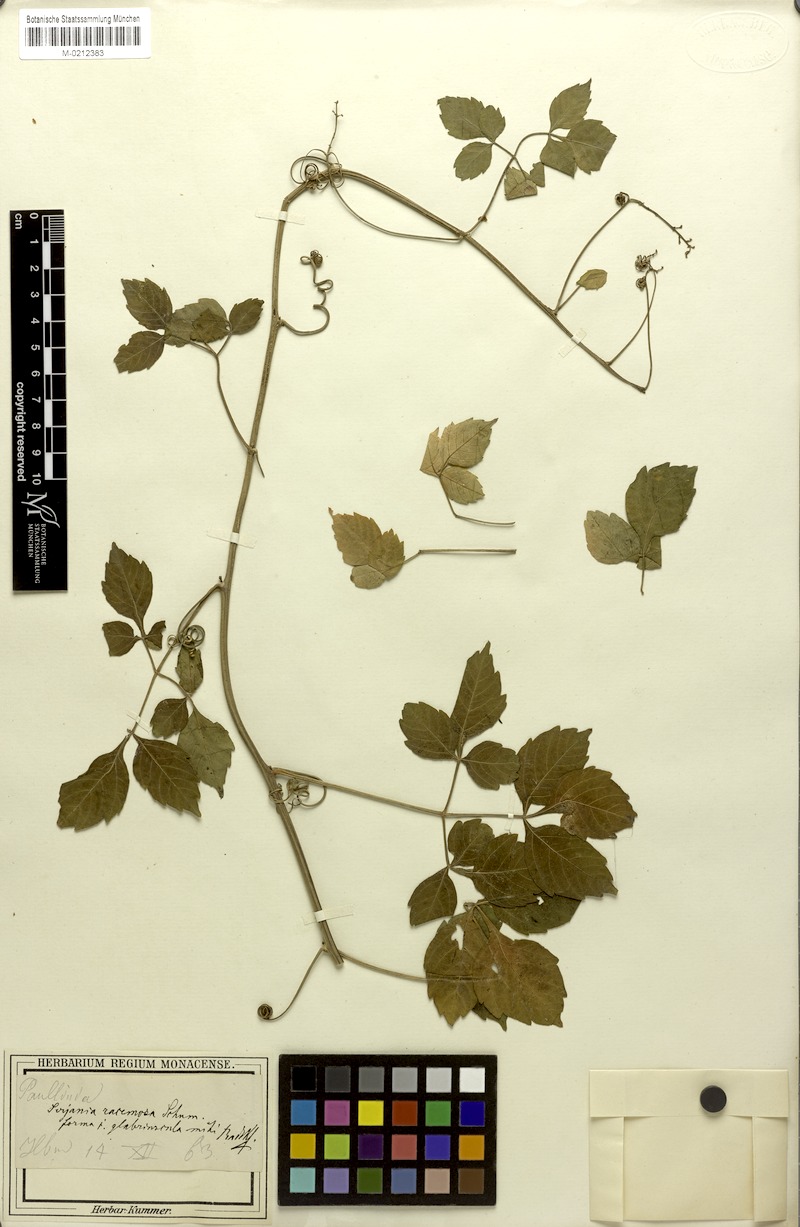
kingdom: Plantae
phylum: Tracheophyta
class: Magnoliopsida
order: Sapindales
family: Sapindaceae
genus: Serjania
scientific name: Serjania racemosa
